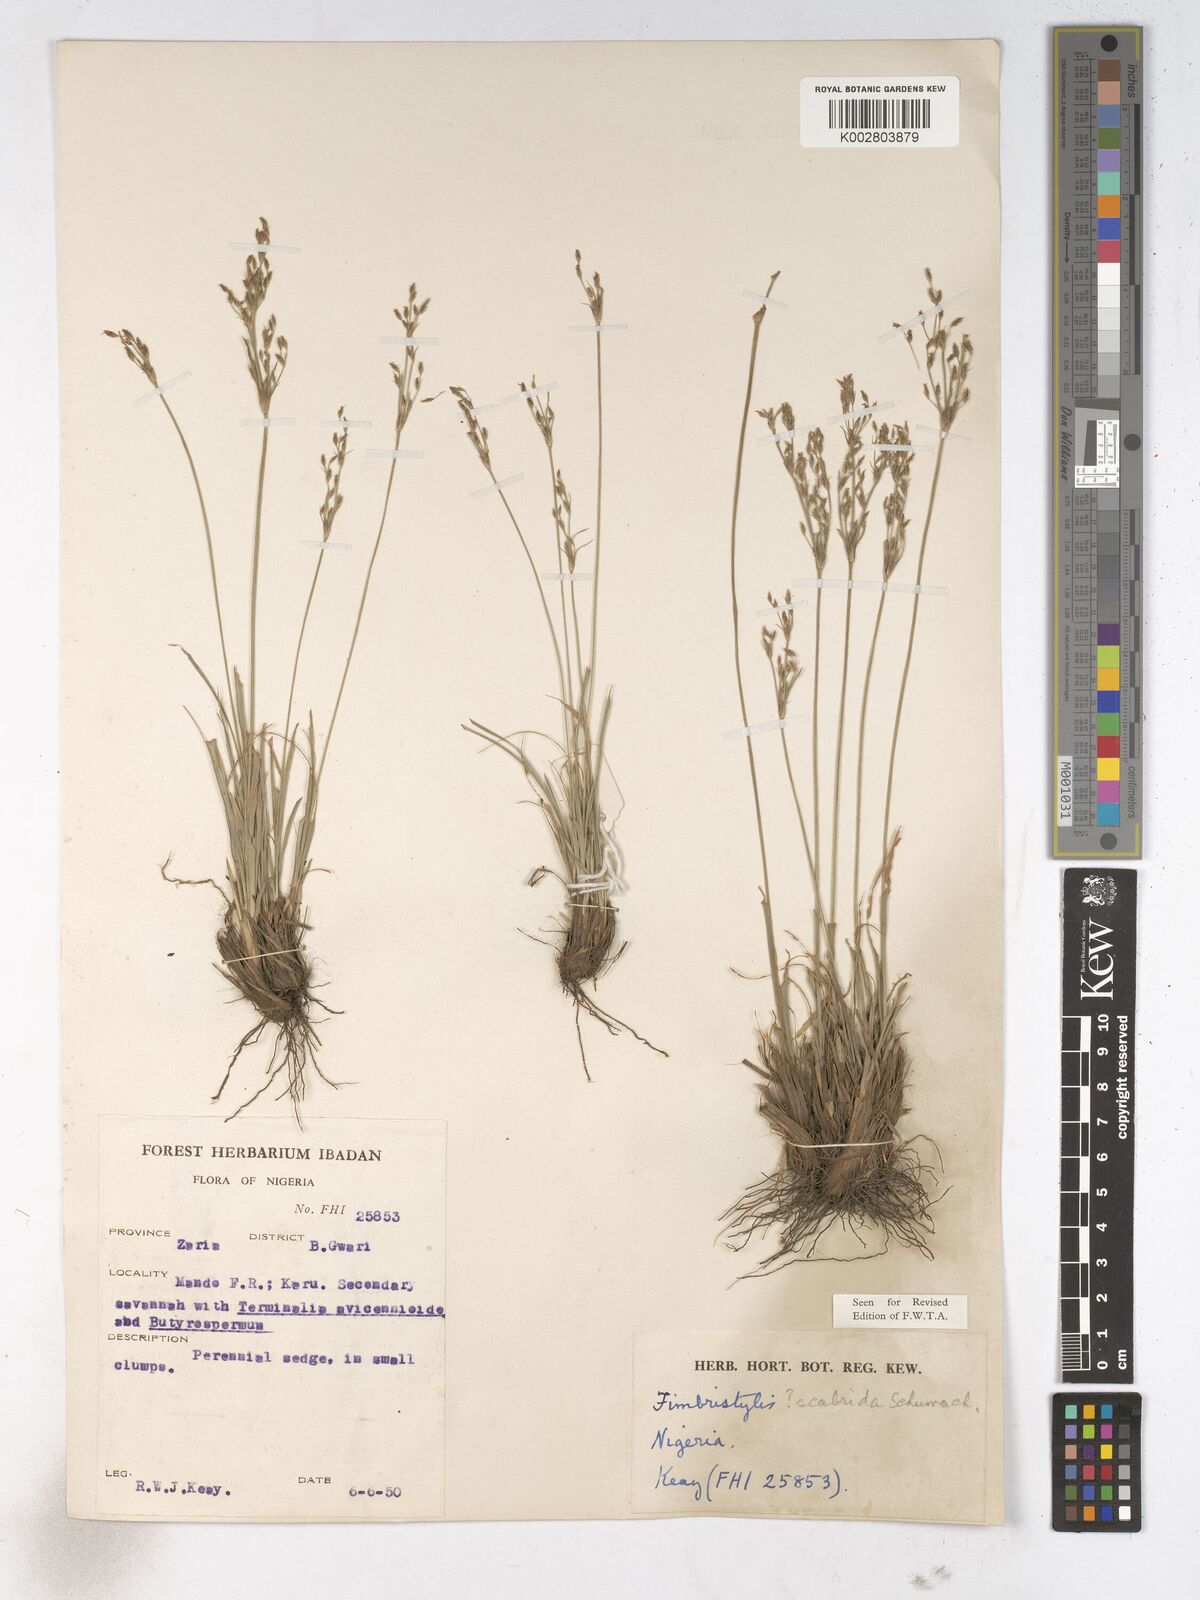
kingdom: Plantae
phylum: Tracheophyta
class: Liliopsida
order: Poales
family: Cyperaceae
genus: Fimbristylis
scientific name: Fimbristylis scabrida
